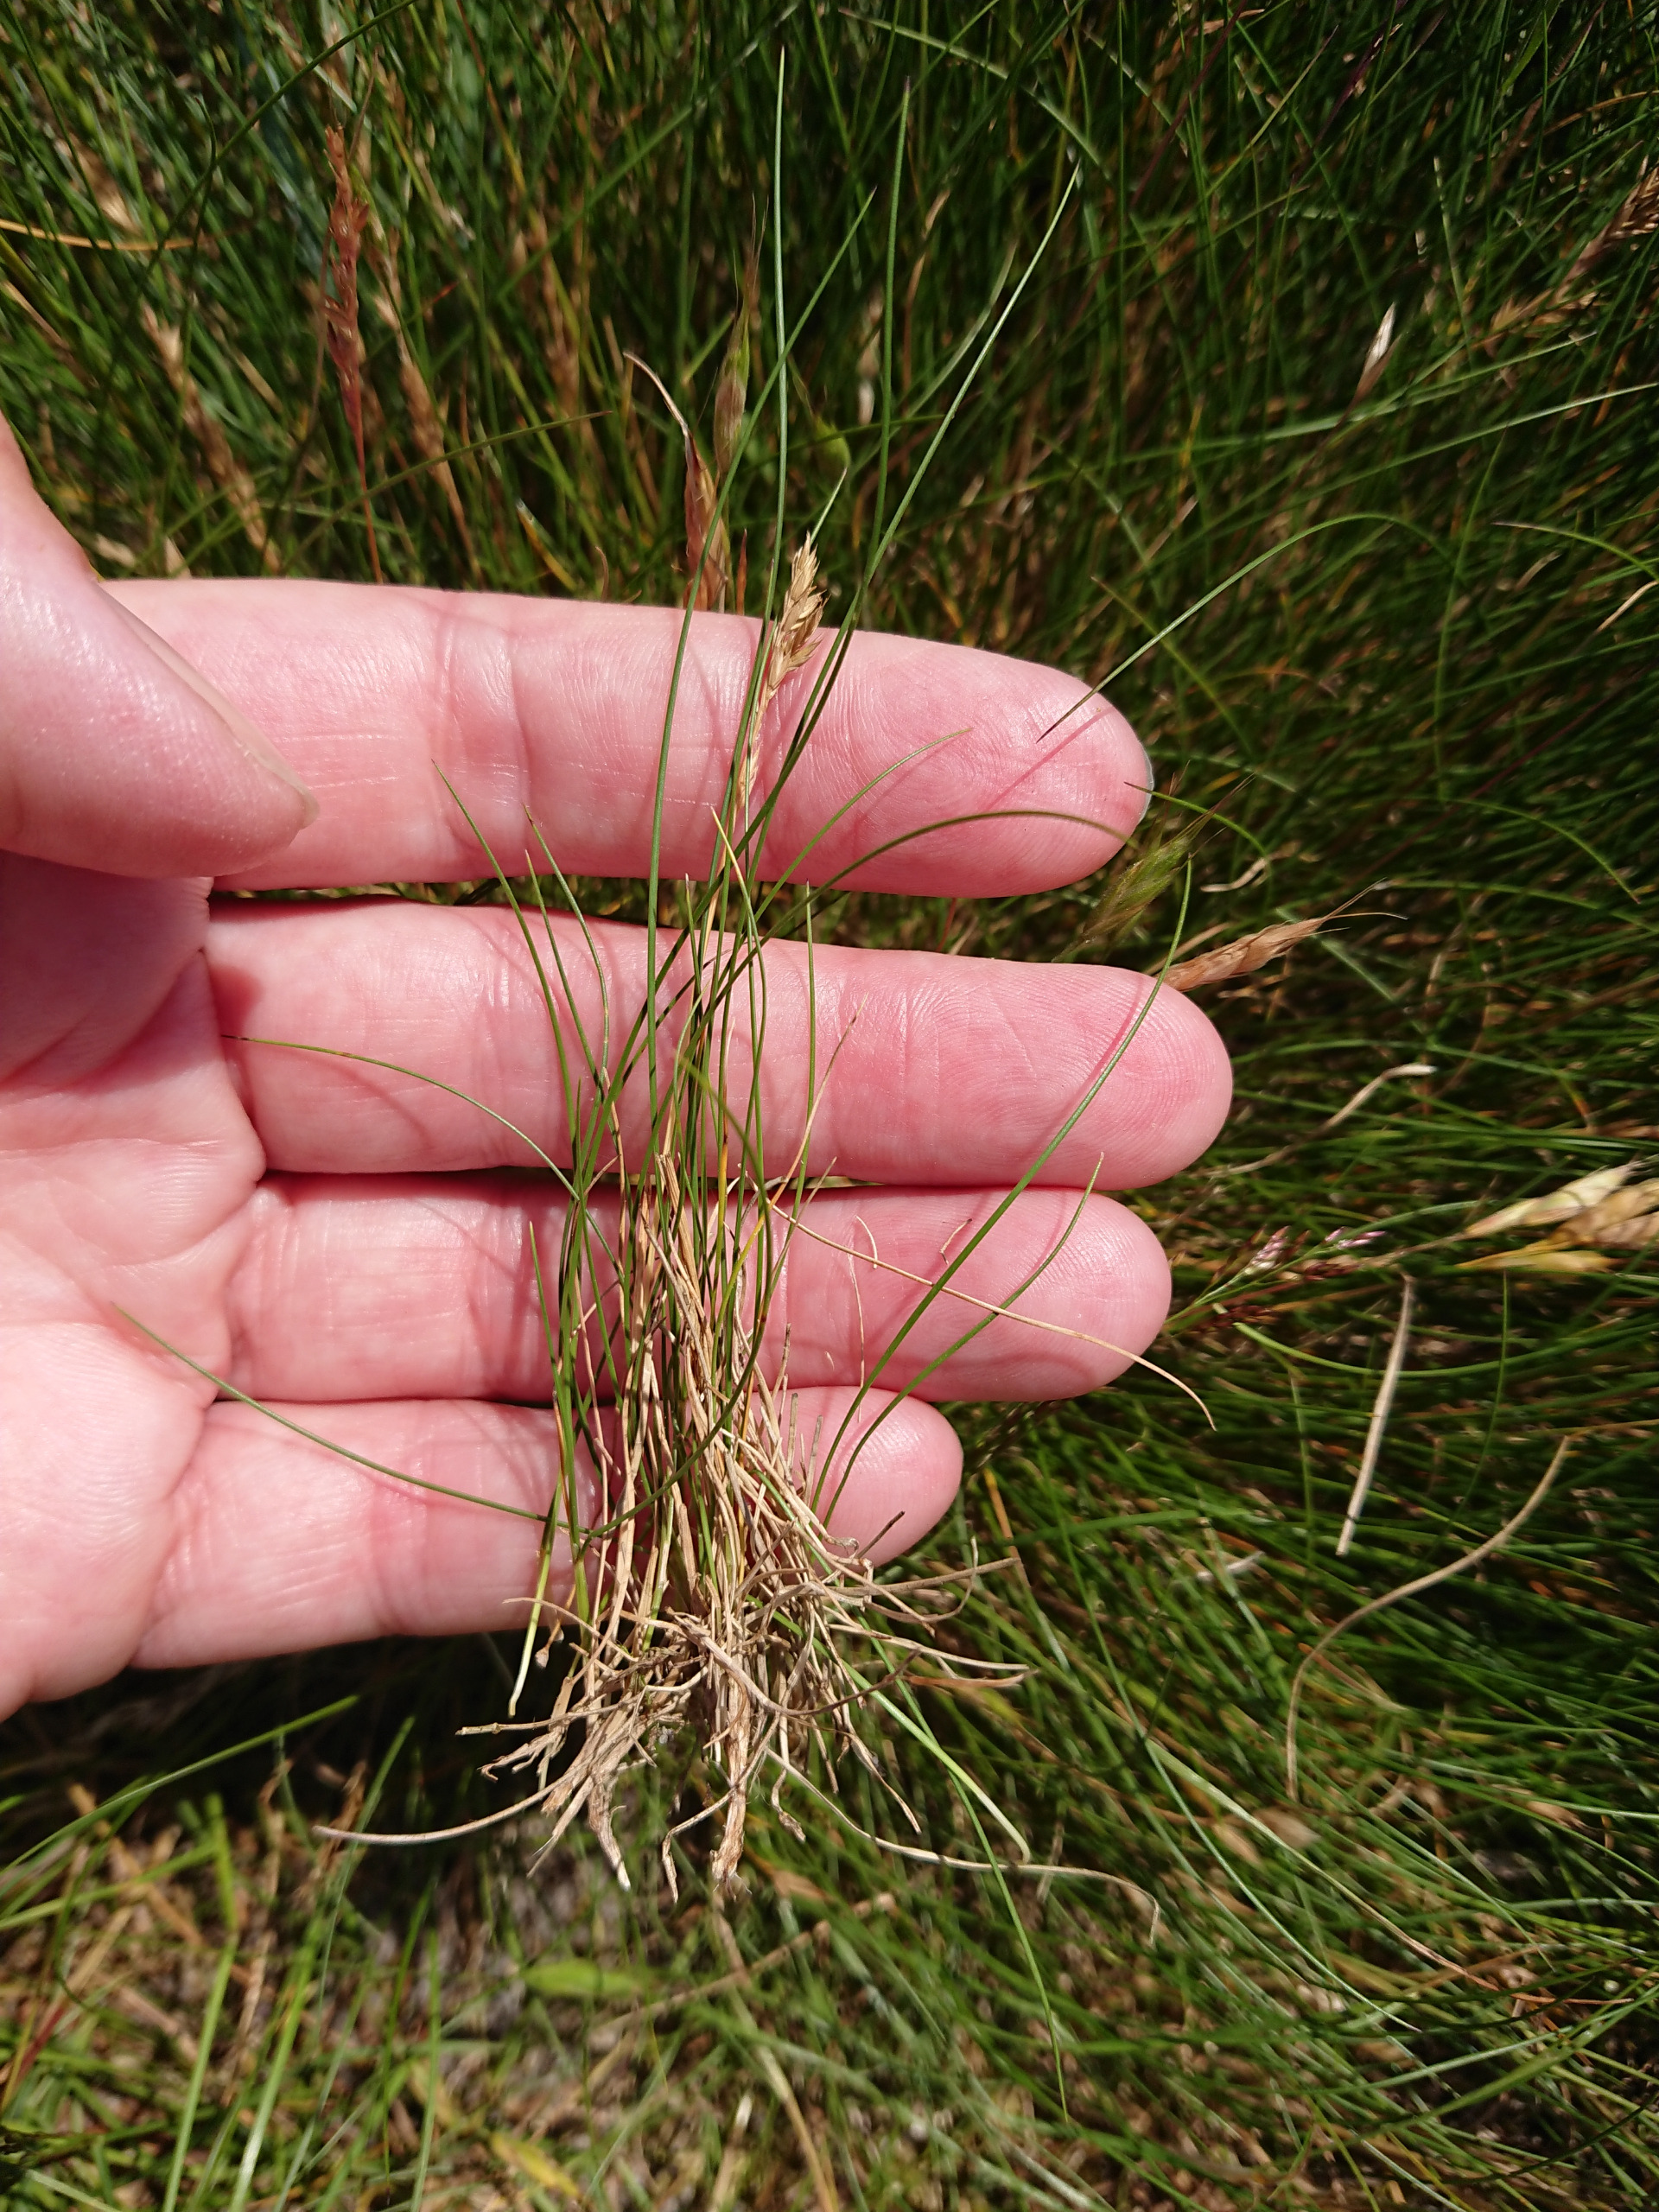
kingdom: Plantae
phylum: Tracheophyta
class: Liliopsida
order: Poales
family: Poaceae
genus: Festuca
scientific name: Festuca ovina
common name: Fåre-svingel
